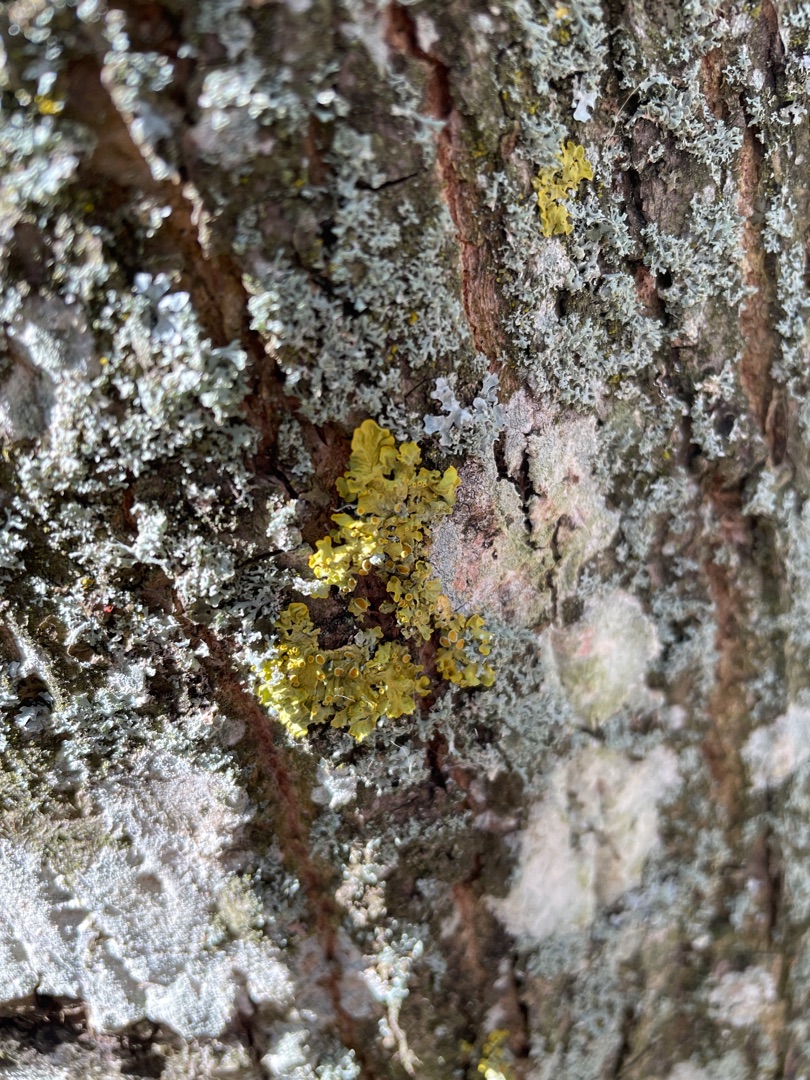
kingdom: Fungi
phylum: Ascomycota
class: Lecanoromycetes
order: Teloschistales
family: Teloschistaceae
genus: Xanthoria
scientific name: Xanthoria parietina
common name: Almindelig væggelav
